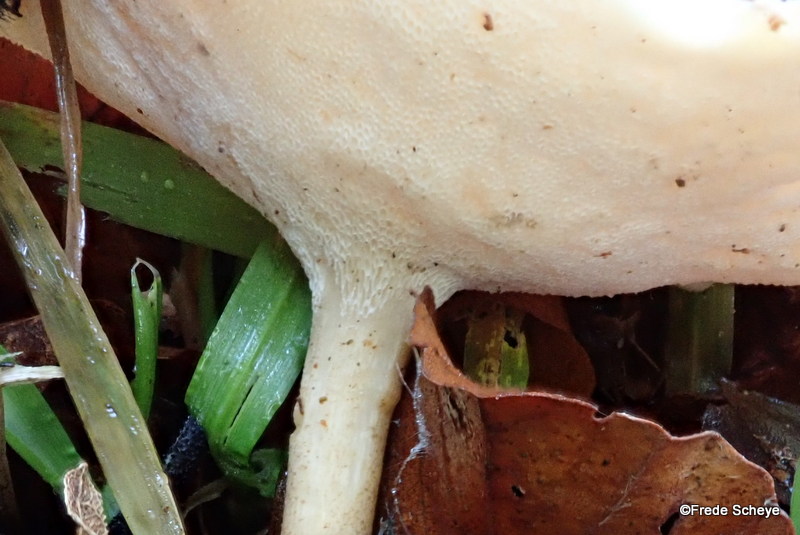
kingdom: Fungi
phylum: Basidiomycota
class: Agaricomycetes
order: Polyporales
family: Polyporaceae
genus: Lentinus
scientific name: Lentinus brumalis
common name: vinter-stilkporesvamp
